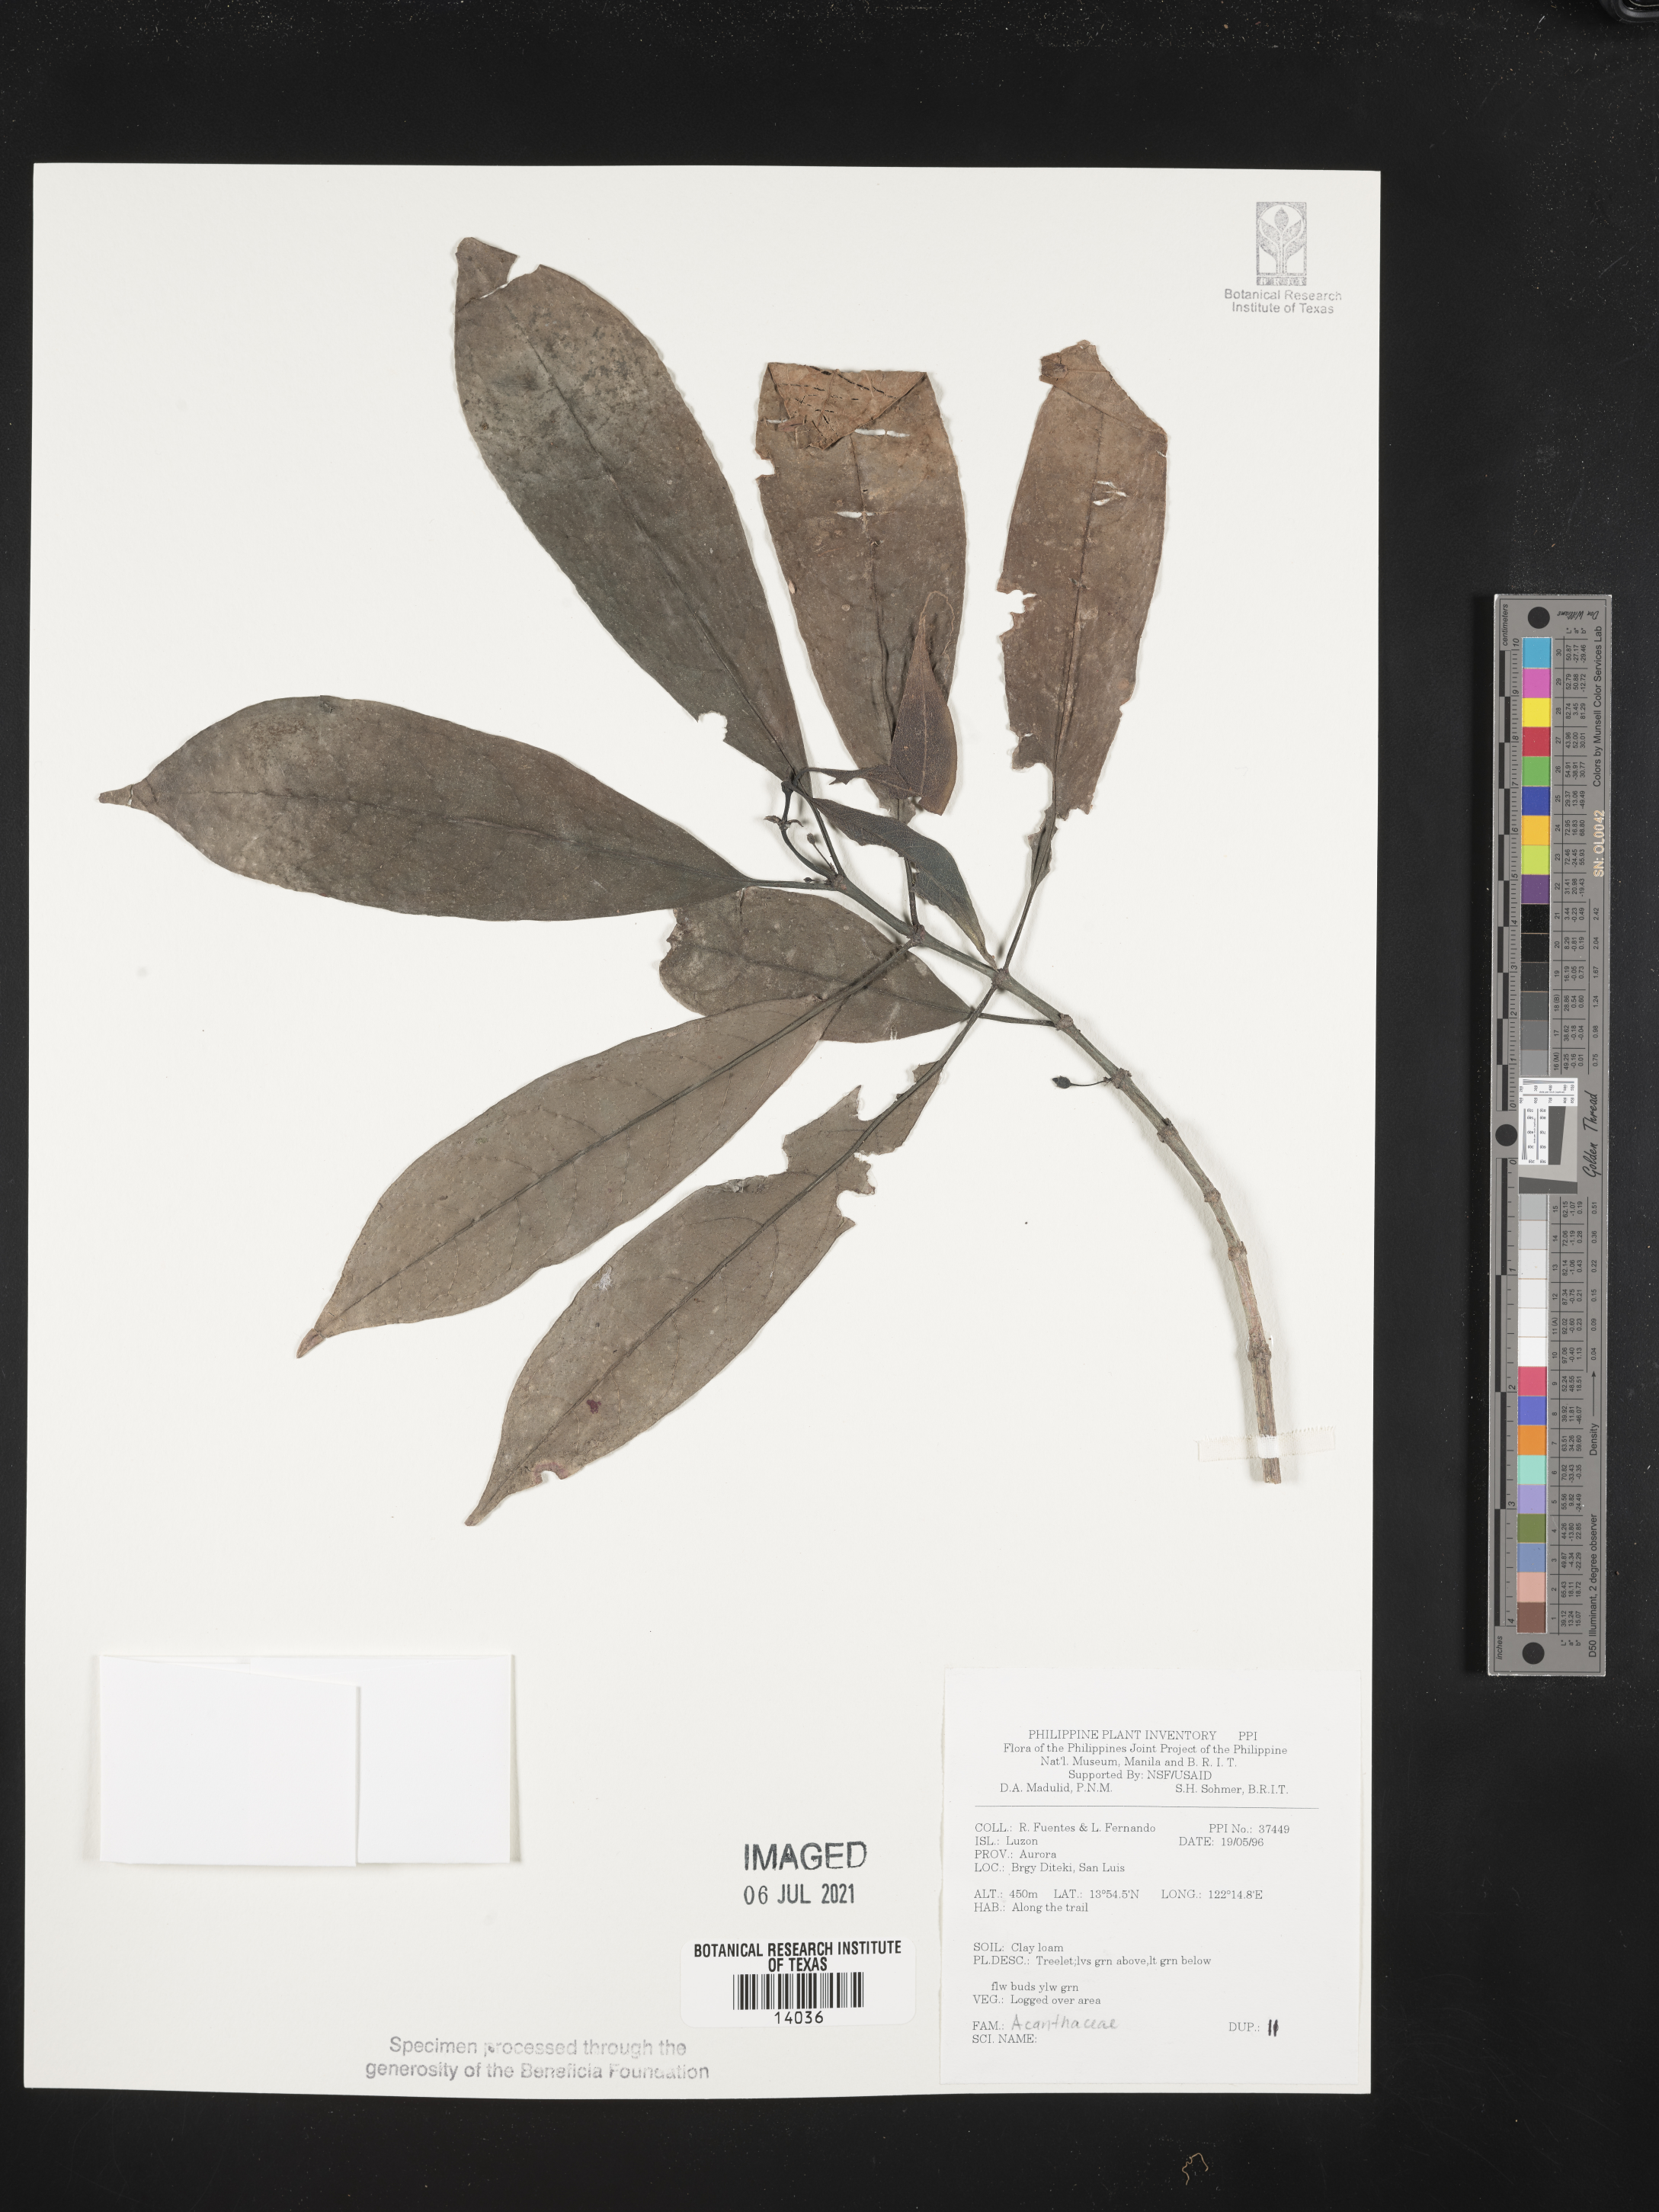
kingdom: Plantae
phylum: Tracheophyta
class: Magnoliopsida
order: Lamiales
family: Acanthaceae
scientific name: Acanthaceae
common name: Acanthaceae
